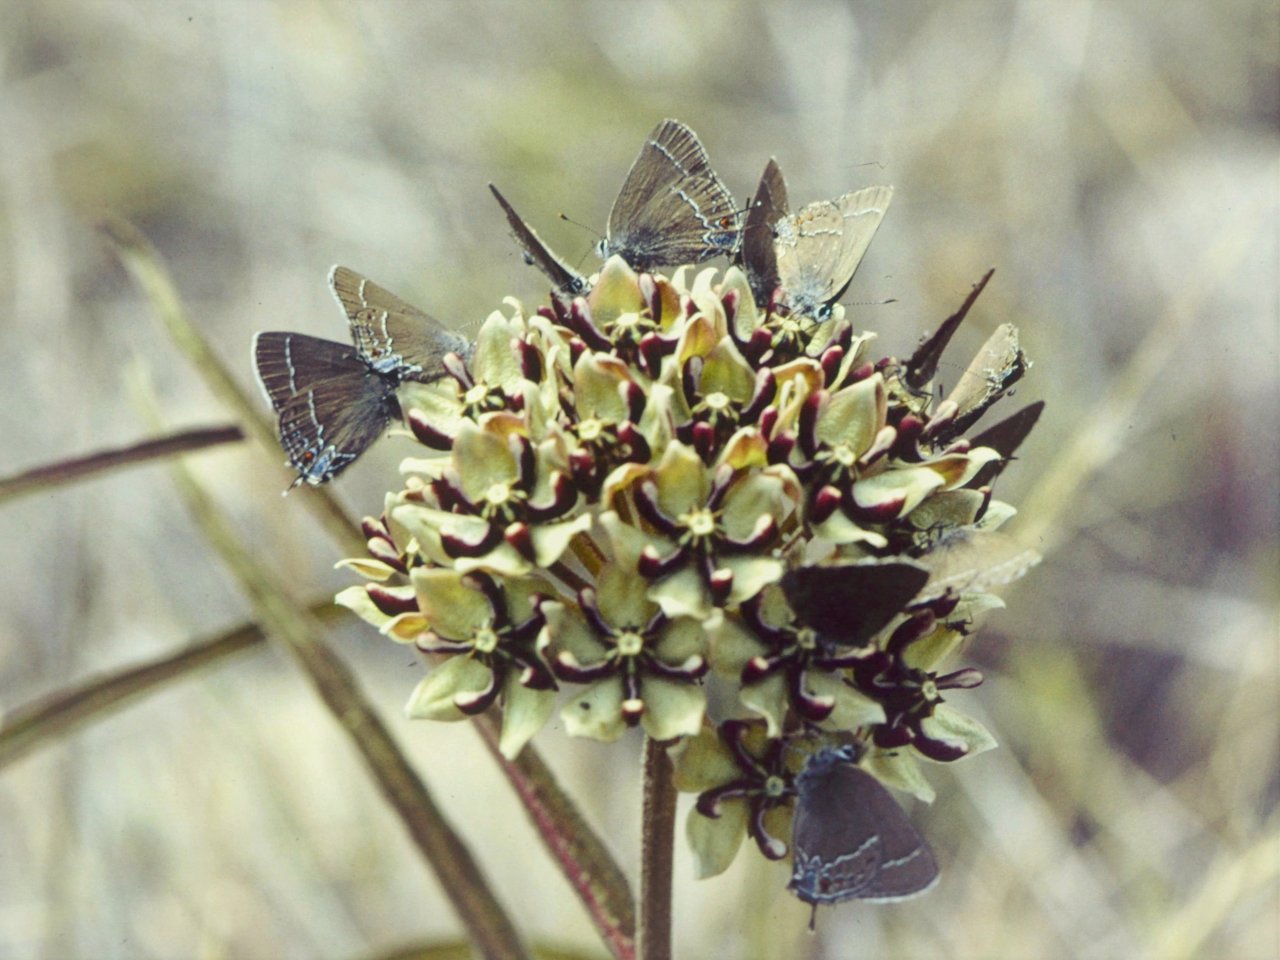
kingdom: Animalia
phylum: Arthropoda
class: Insecta
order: Lepidoptera
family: Lycaenidae
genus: Fixsenia
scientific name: Fixsenia polingi
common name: Poling's Hairstreak
